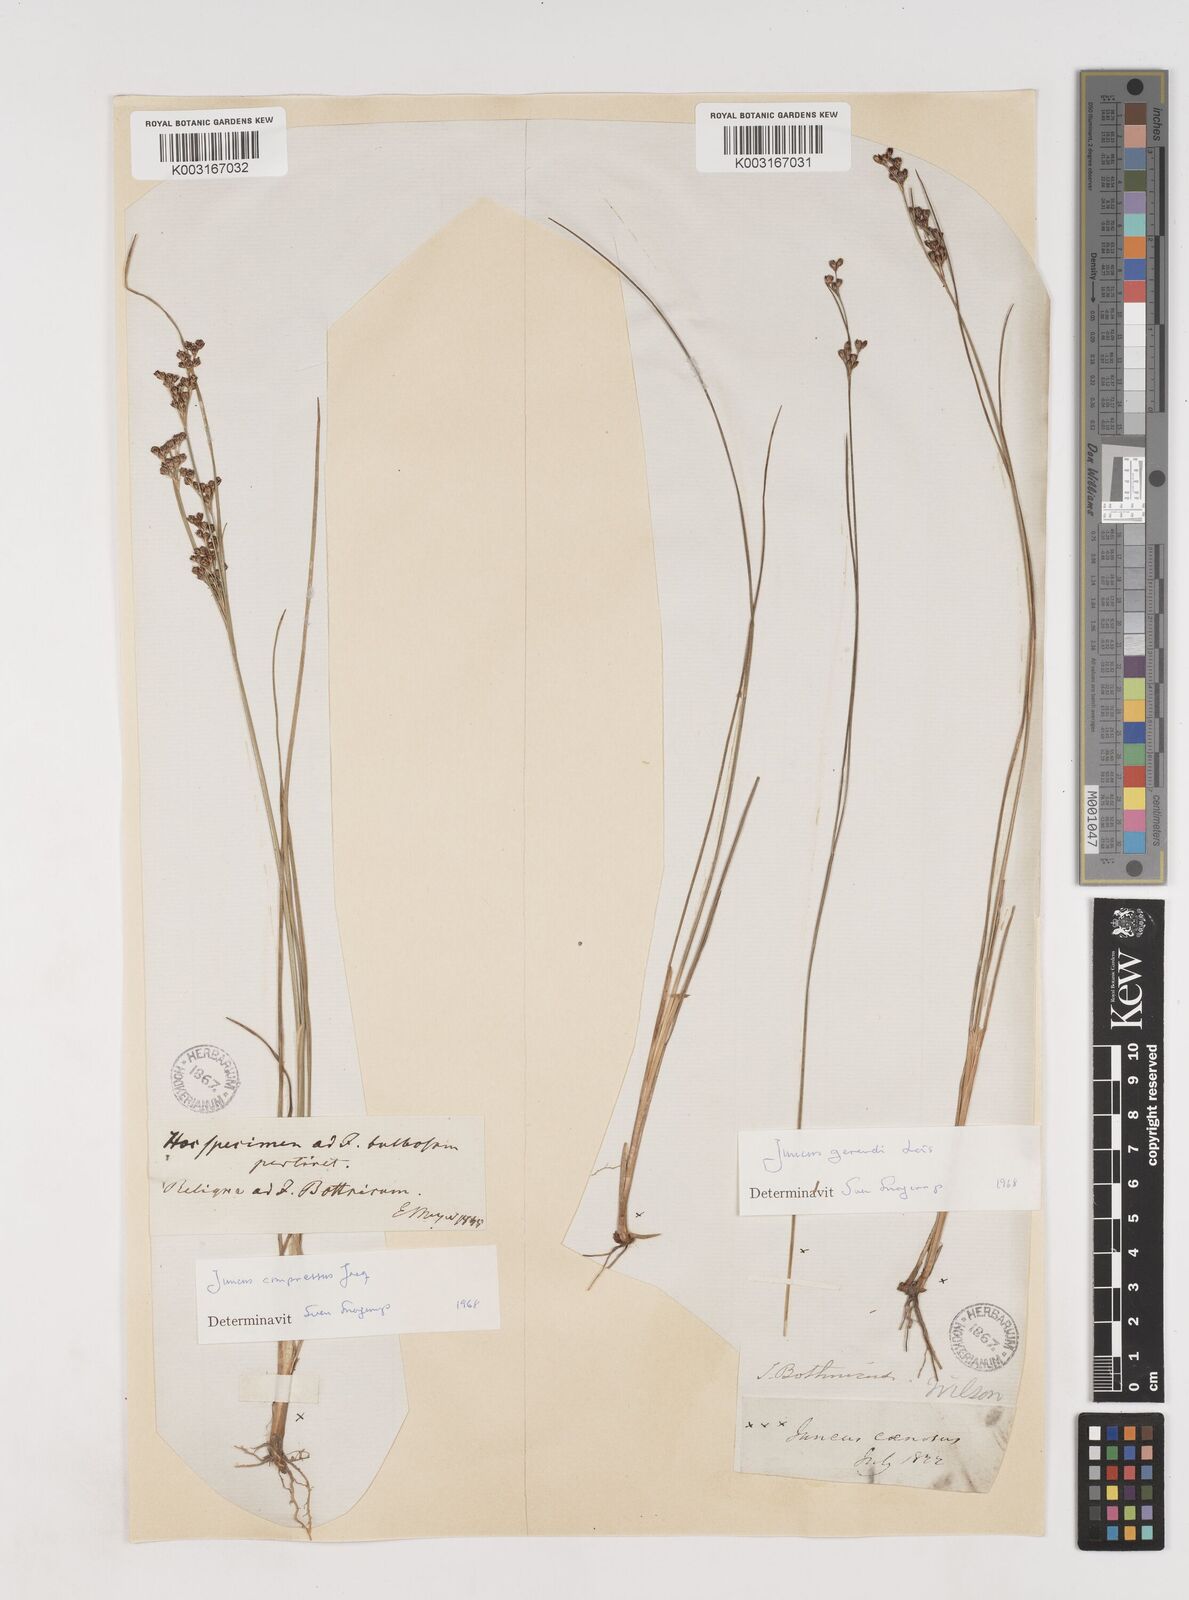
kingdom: Plantae
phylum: Tracheophyta
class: Liliopsida
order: Poales
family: Juncaceae
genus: Juncus
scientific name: Juncus gerardi
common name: Saltmarsh rush
